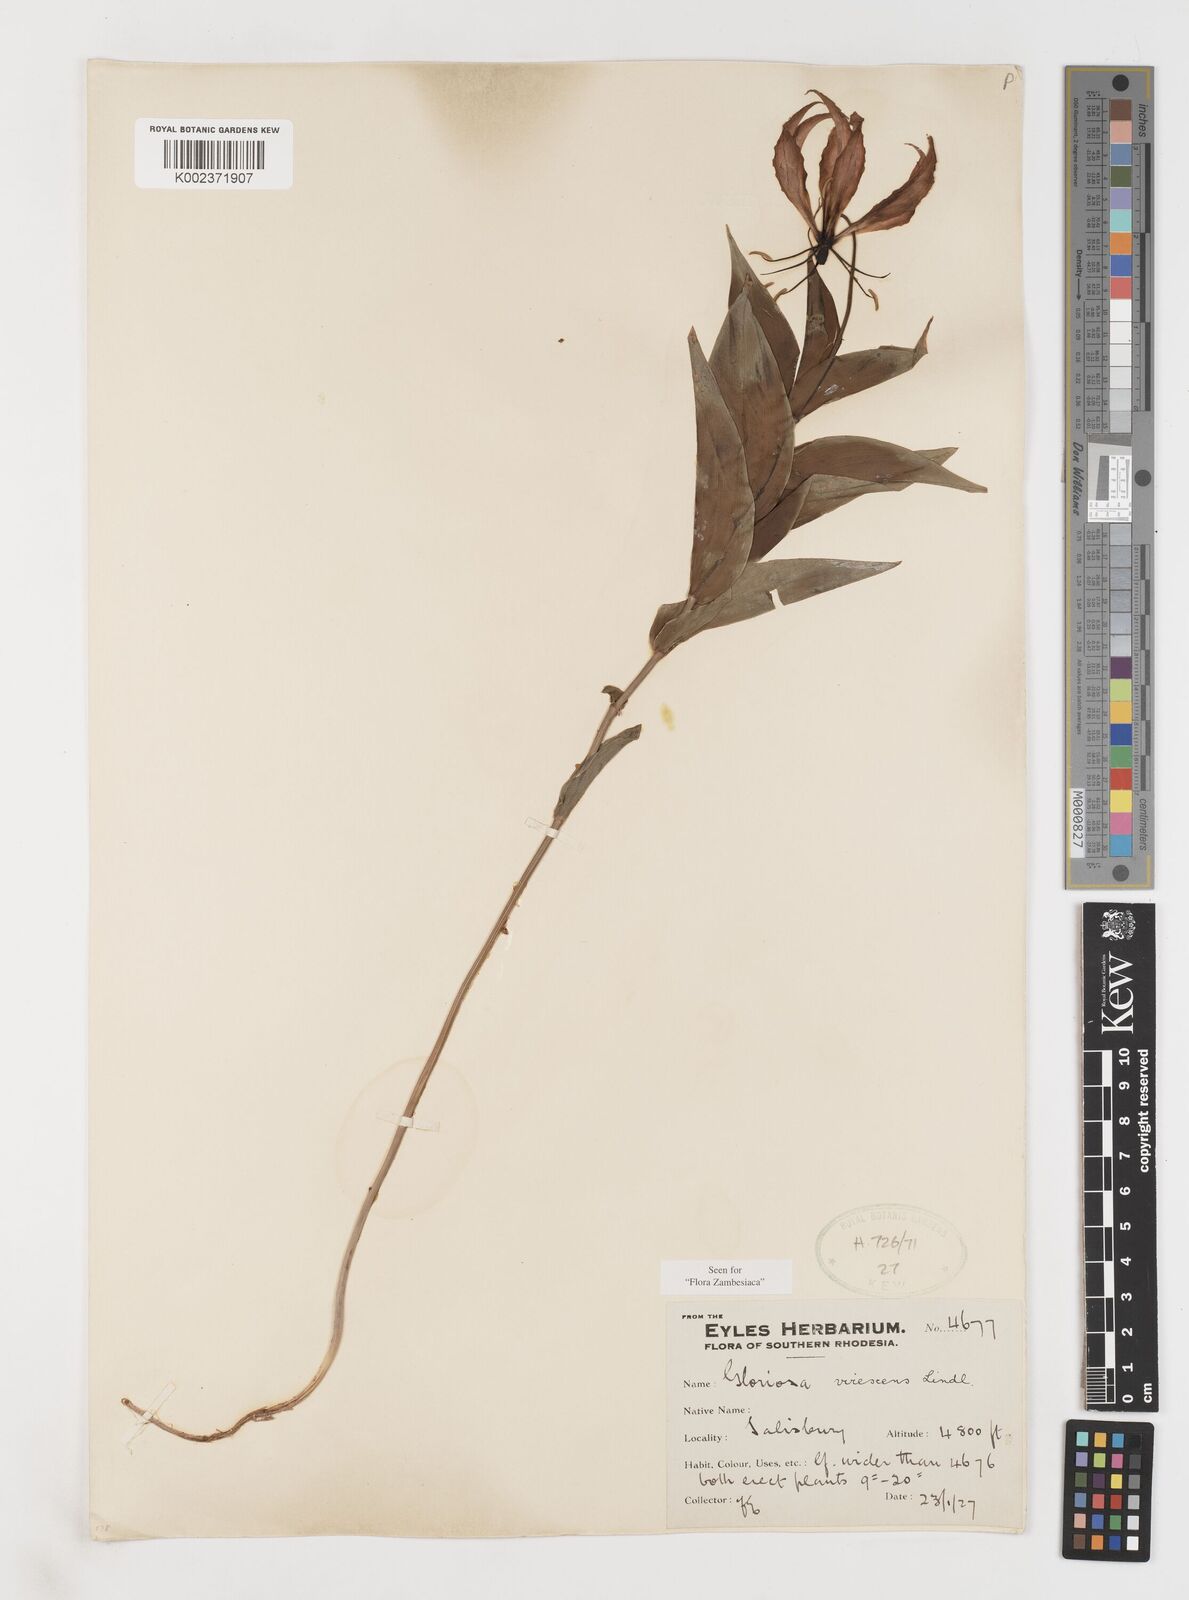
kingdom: Plantae
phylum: Tracheophyta
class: Liliopsida
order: Liliales
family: Colchicaceae
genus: Gloriosa
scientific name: Gloriosa simplex
